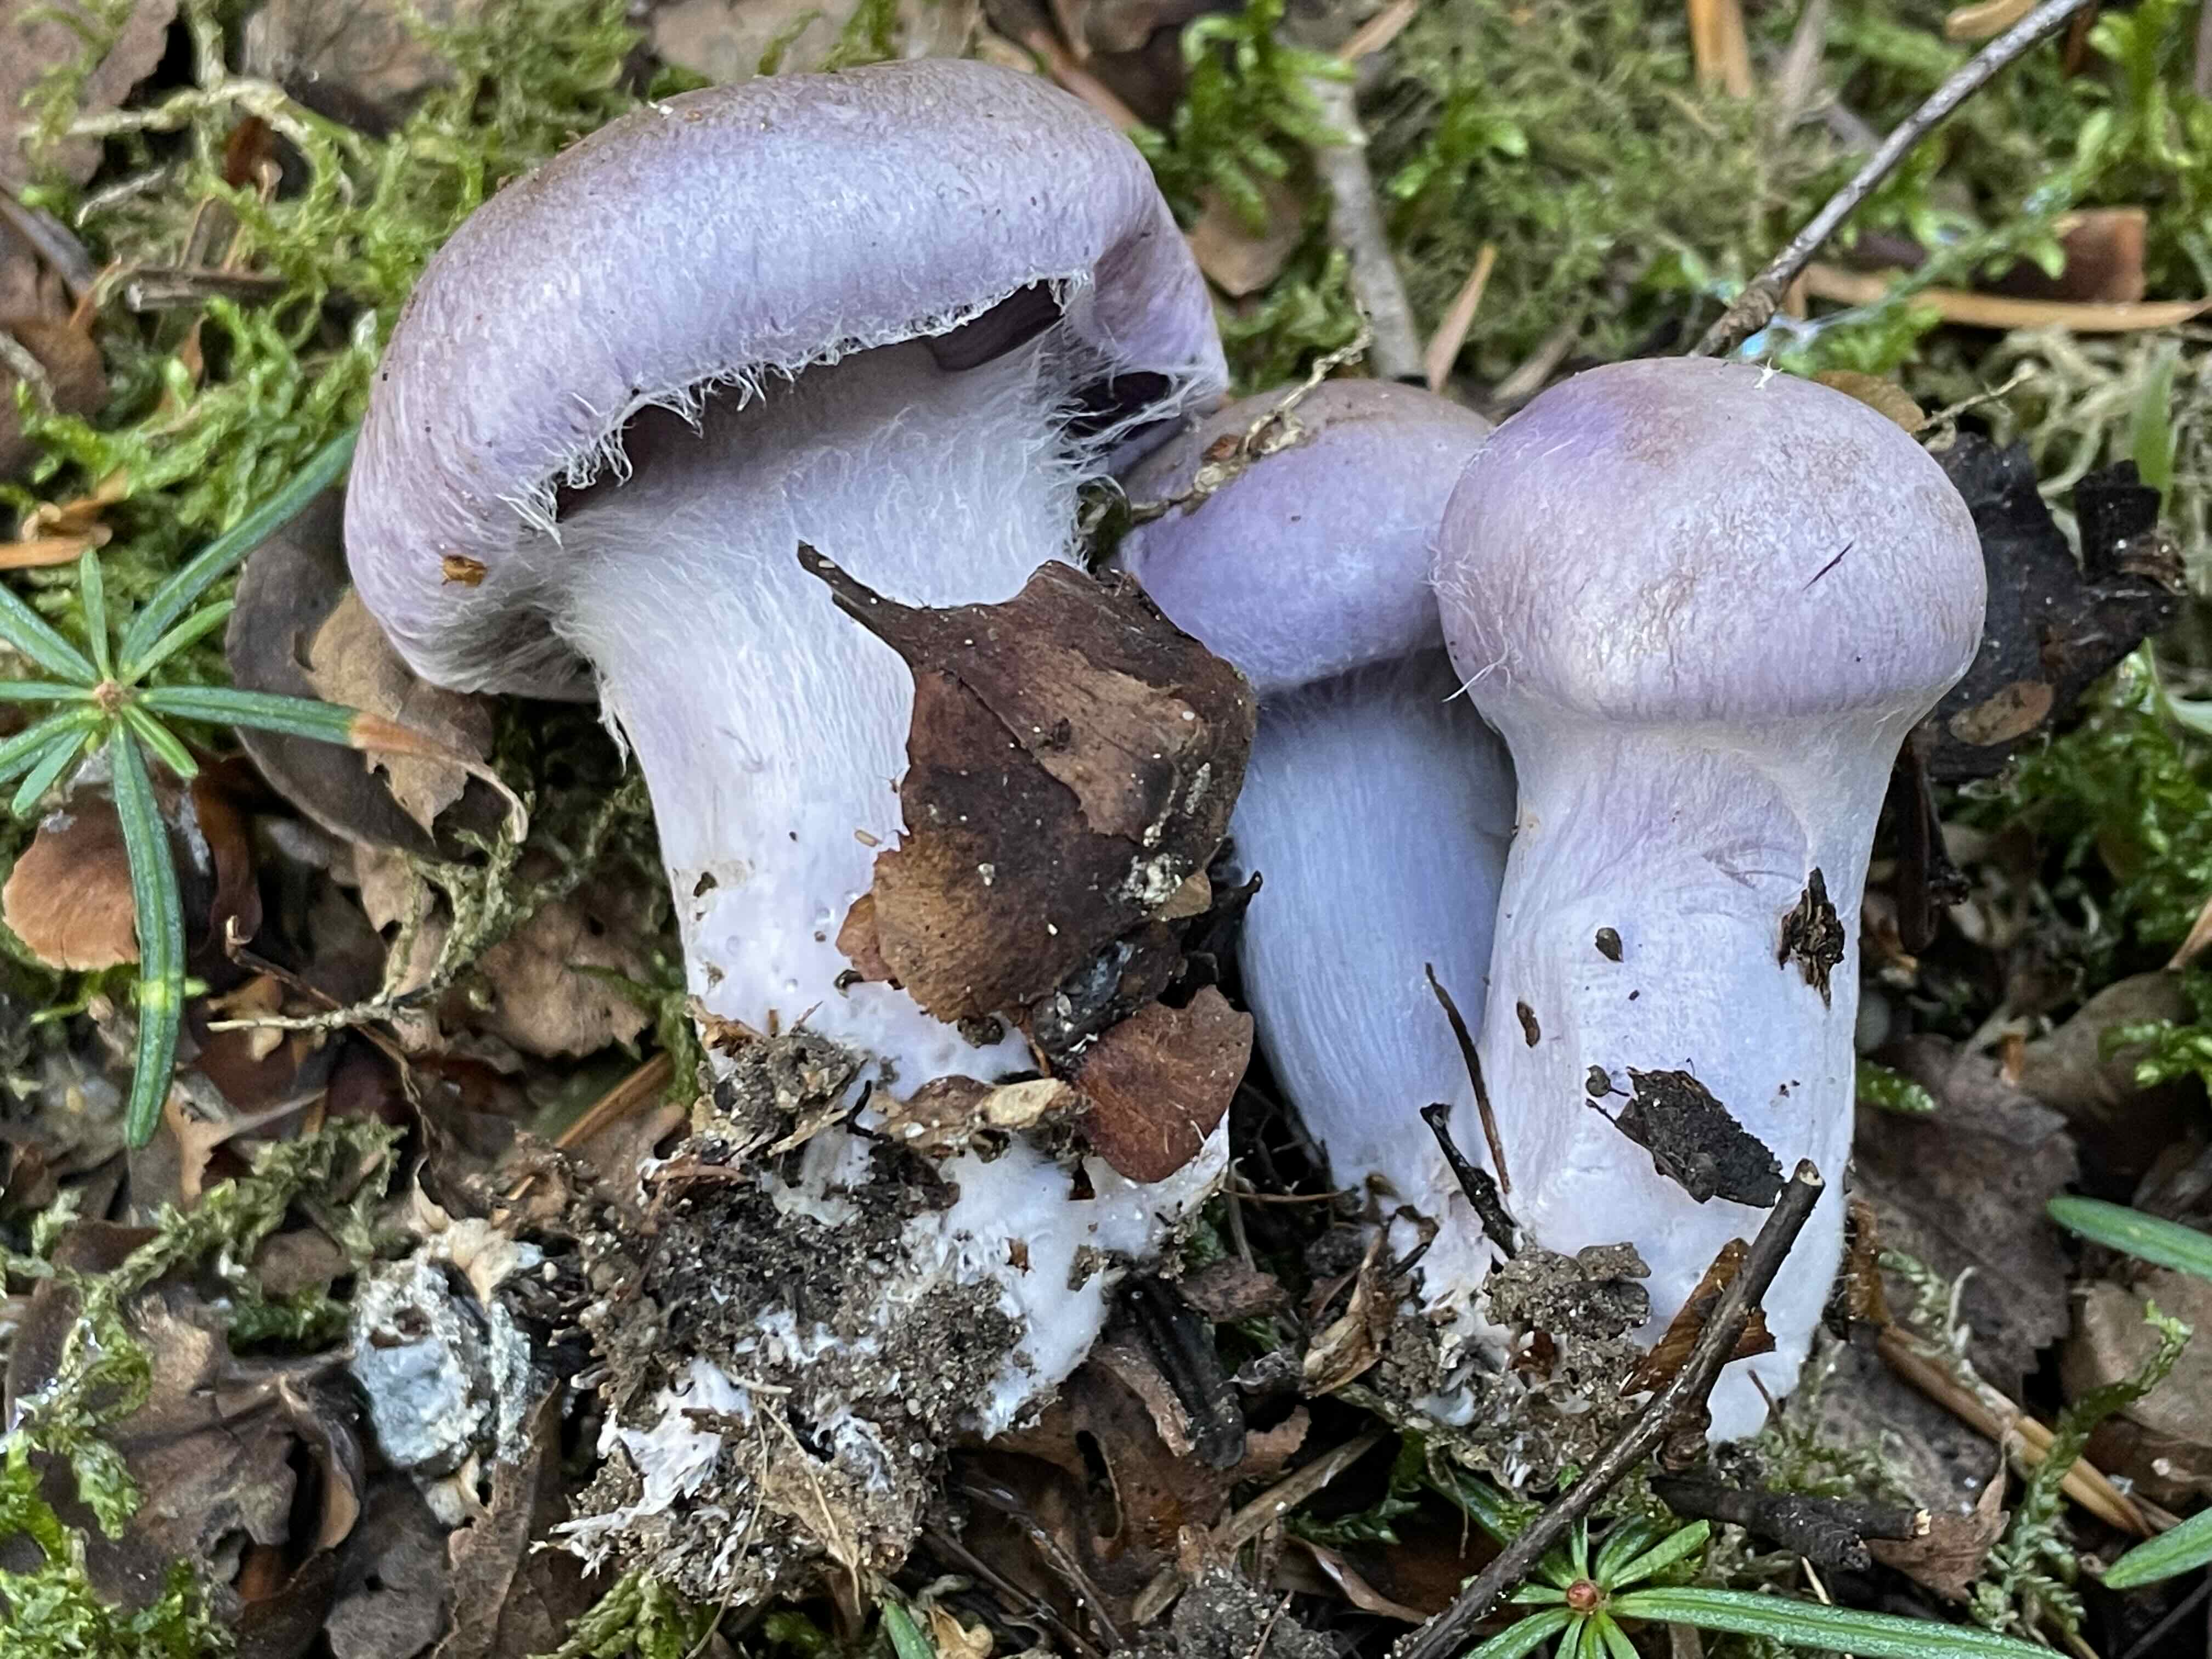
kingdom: Fungi
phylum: Basidiomycota
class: Agaricomycetes
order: Agaricales
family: Cortinariaceae
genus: Cortinarius
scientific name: Cortinarius
